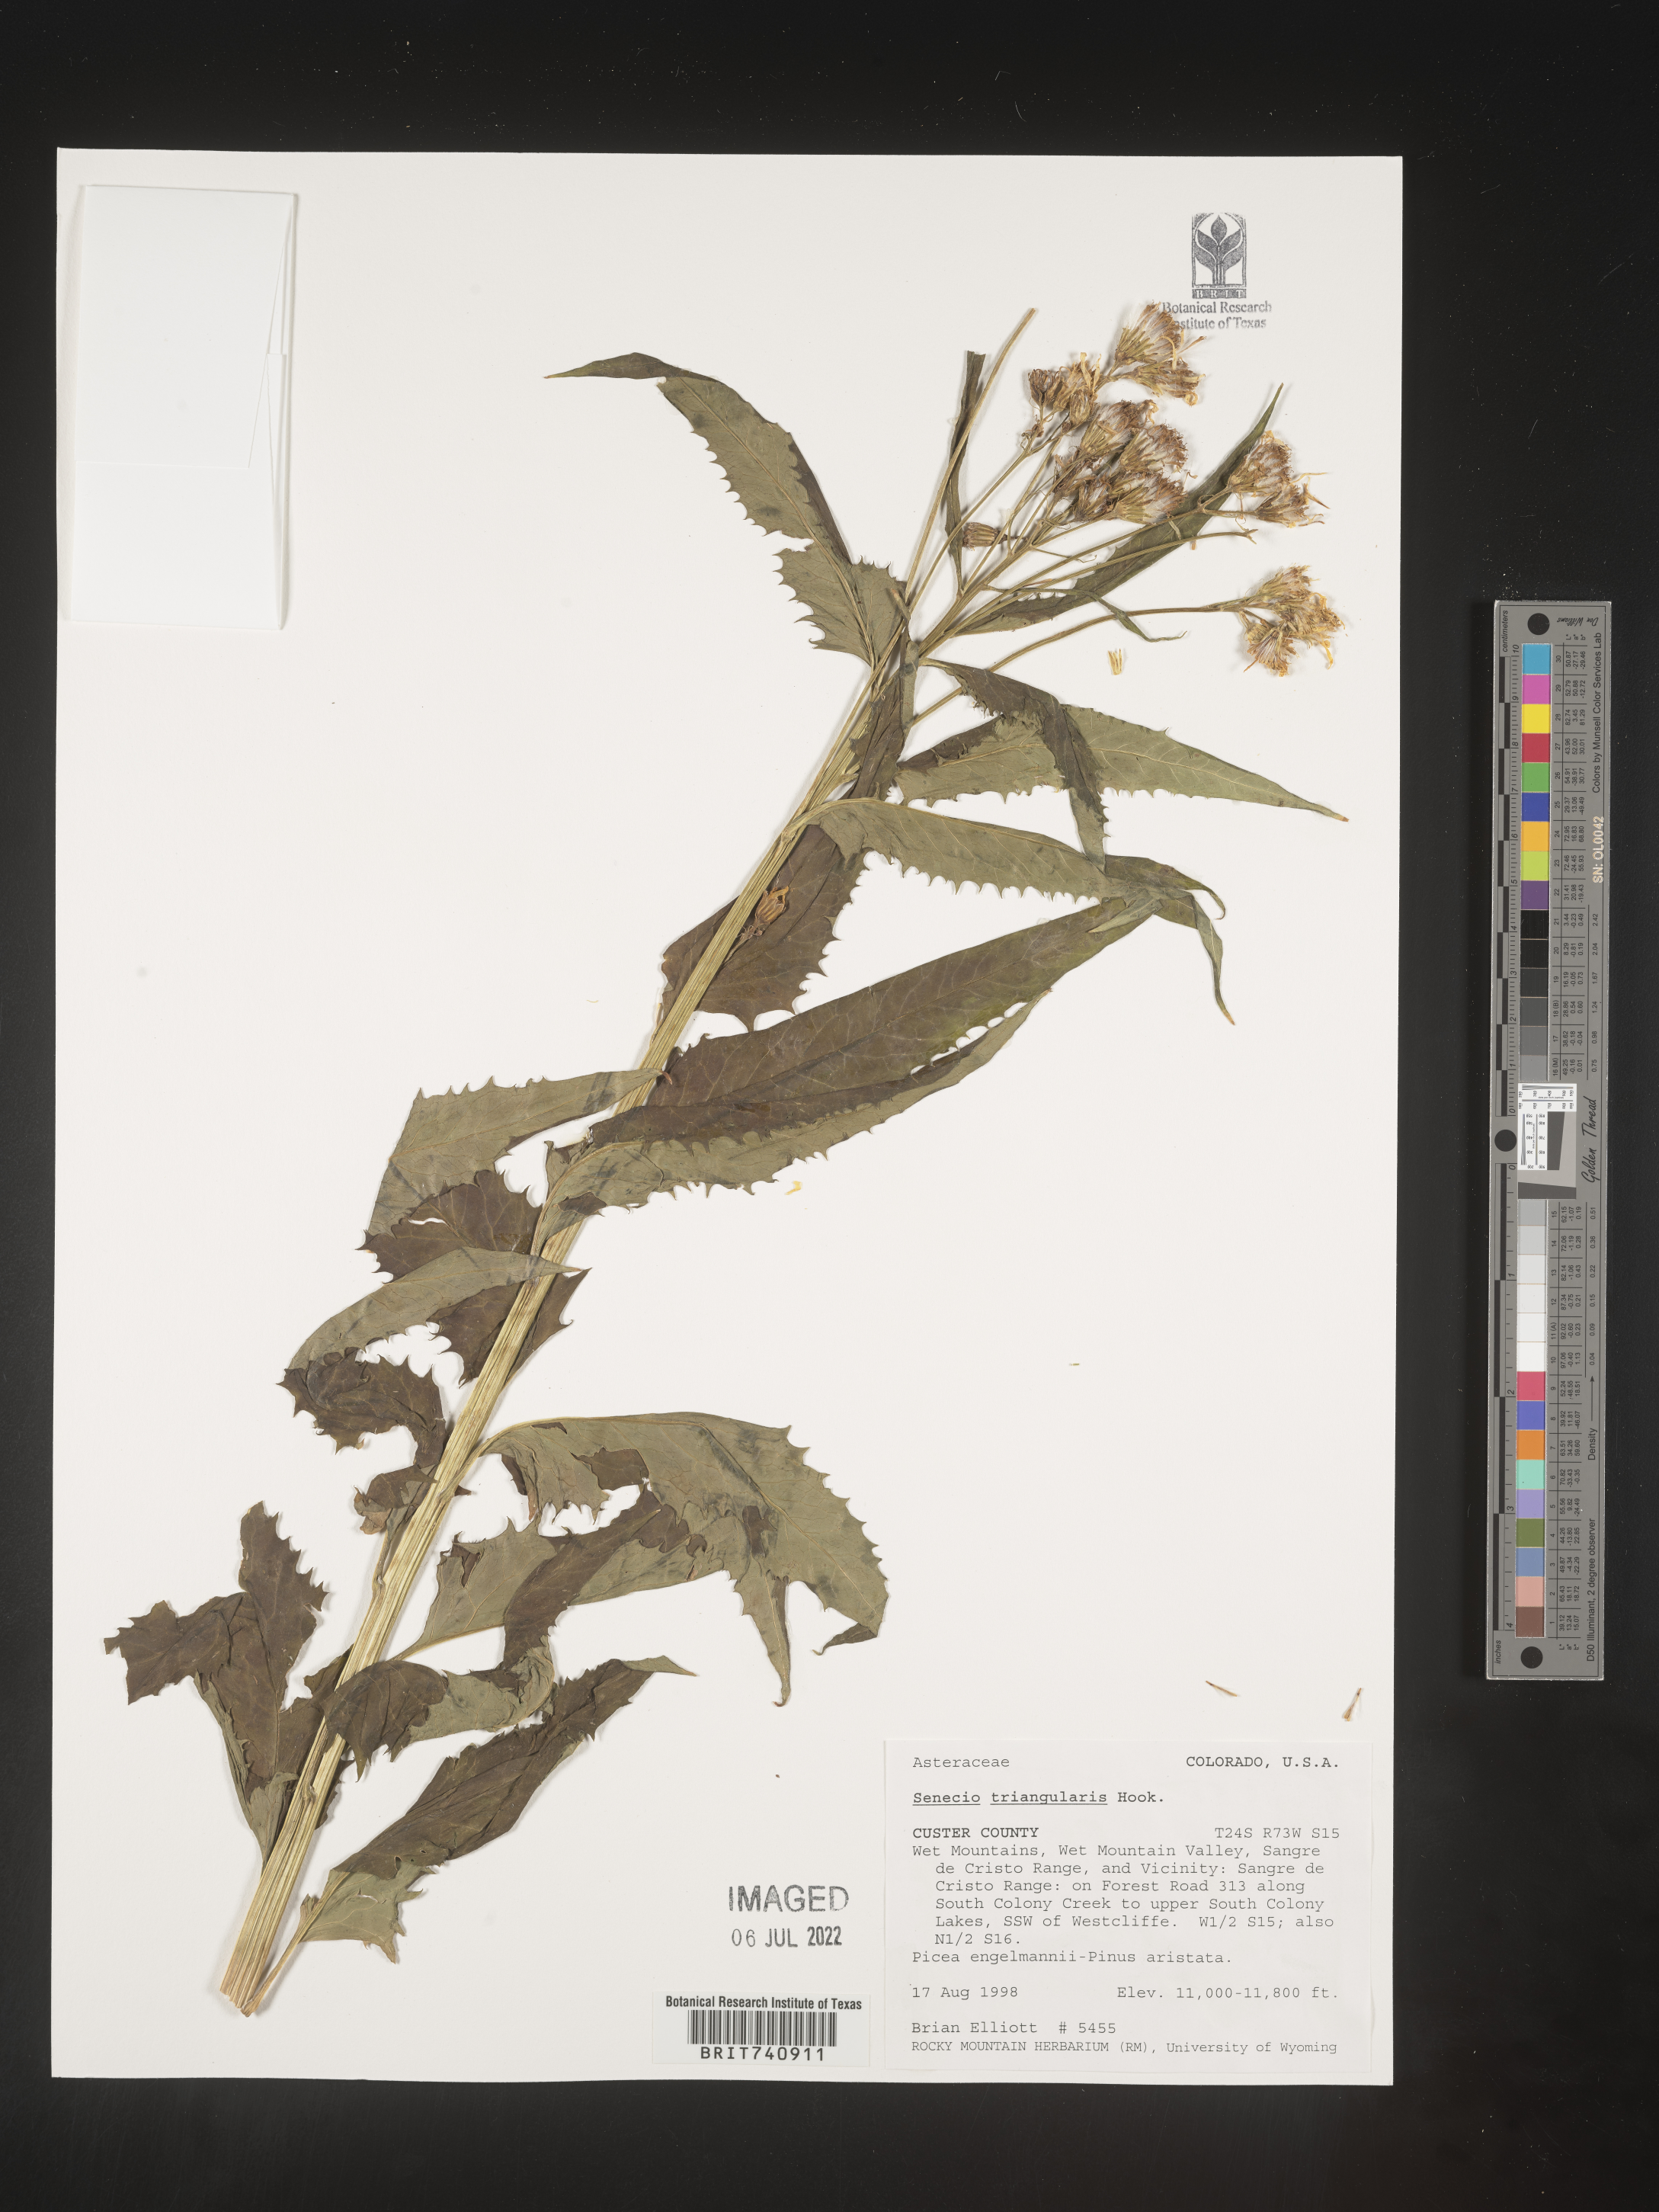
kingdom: Plantae
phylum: Tracheophyta
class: Magnoliopsida
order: Asterales
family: Asteraceae
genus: Senecio
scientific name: Senecio triangularis
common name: Arrowleaf butterweed
